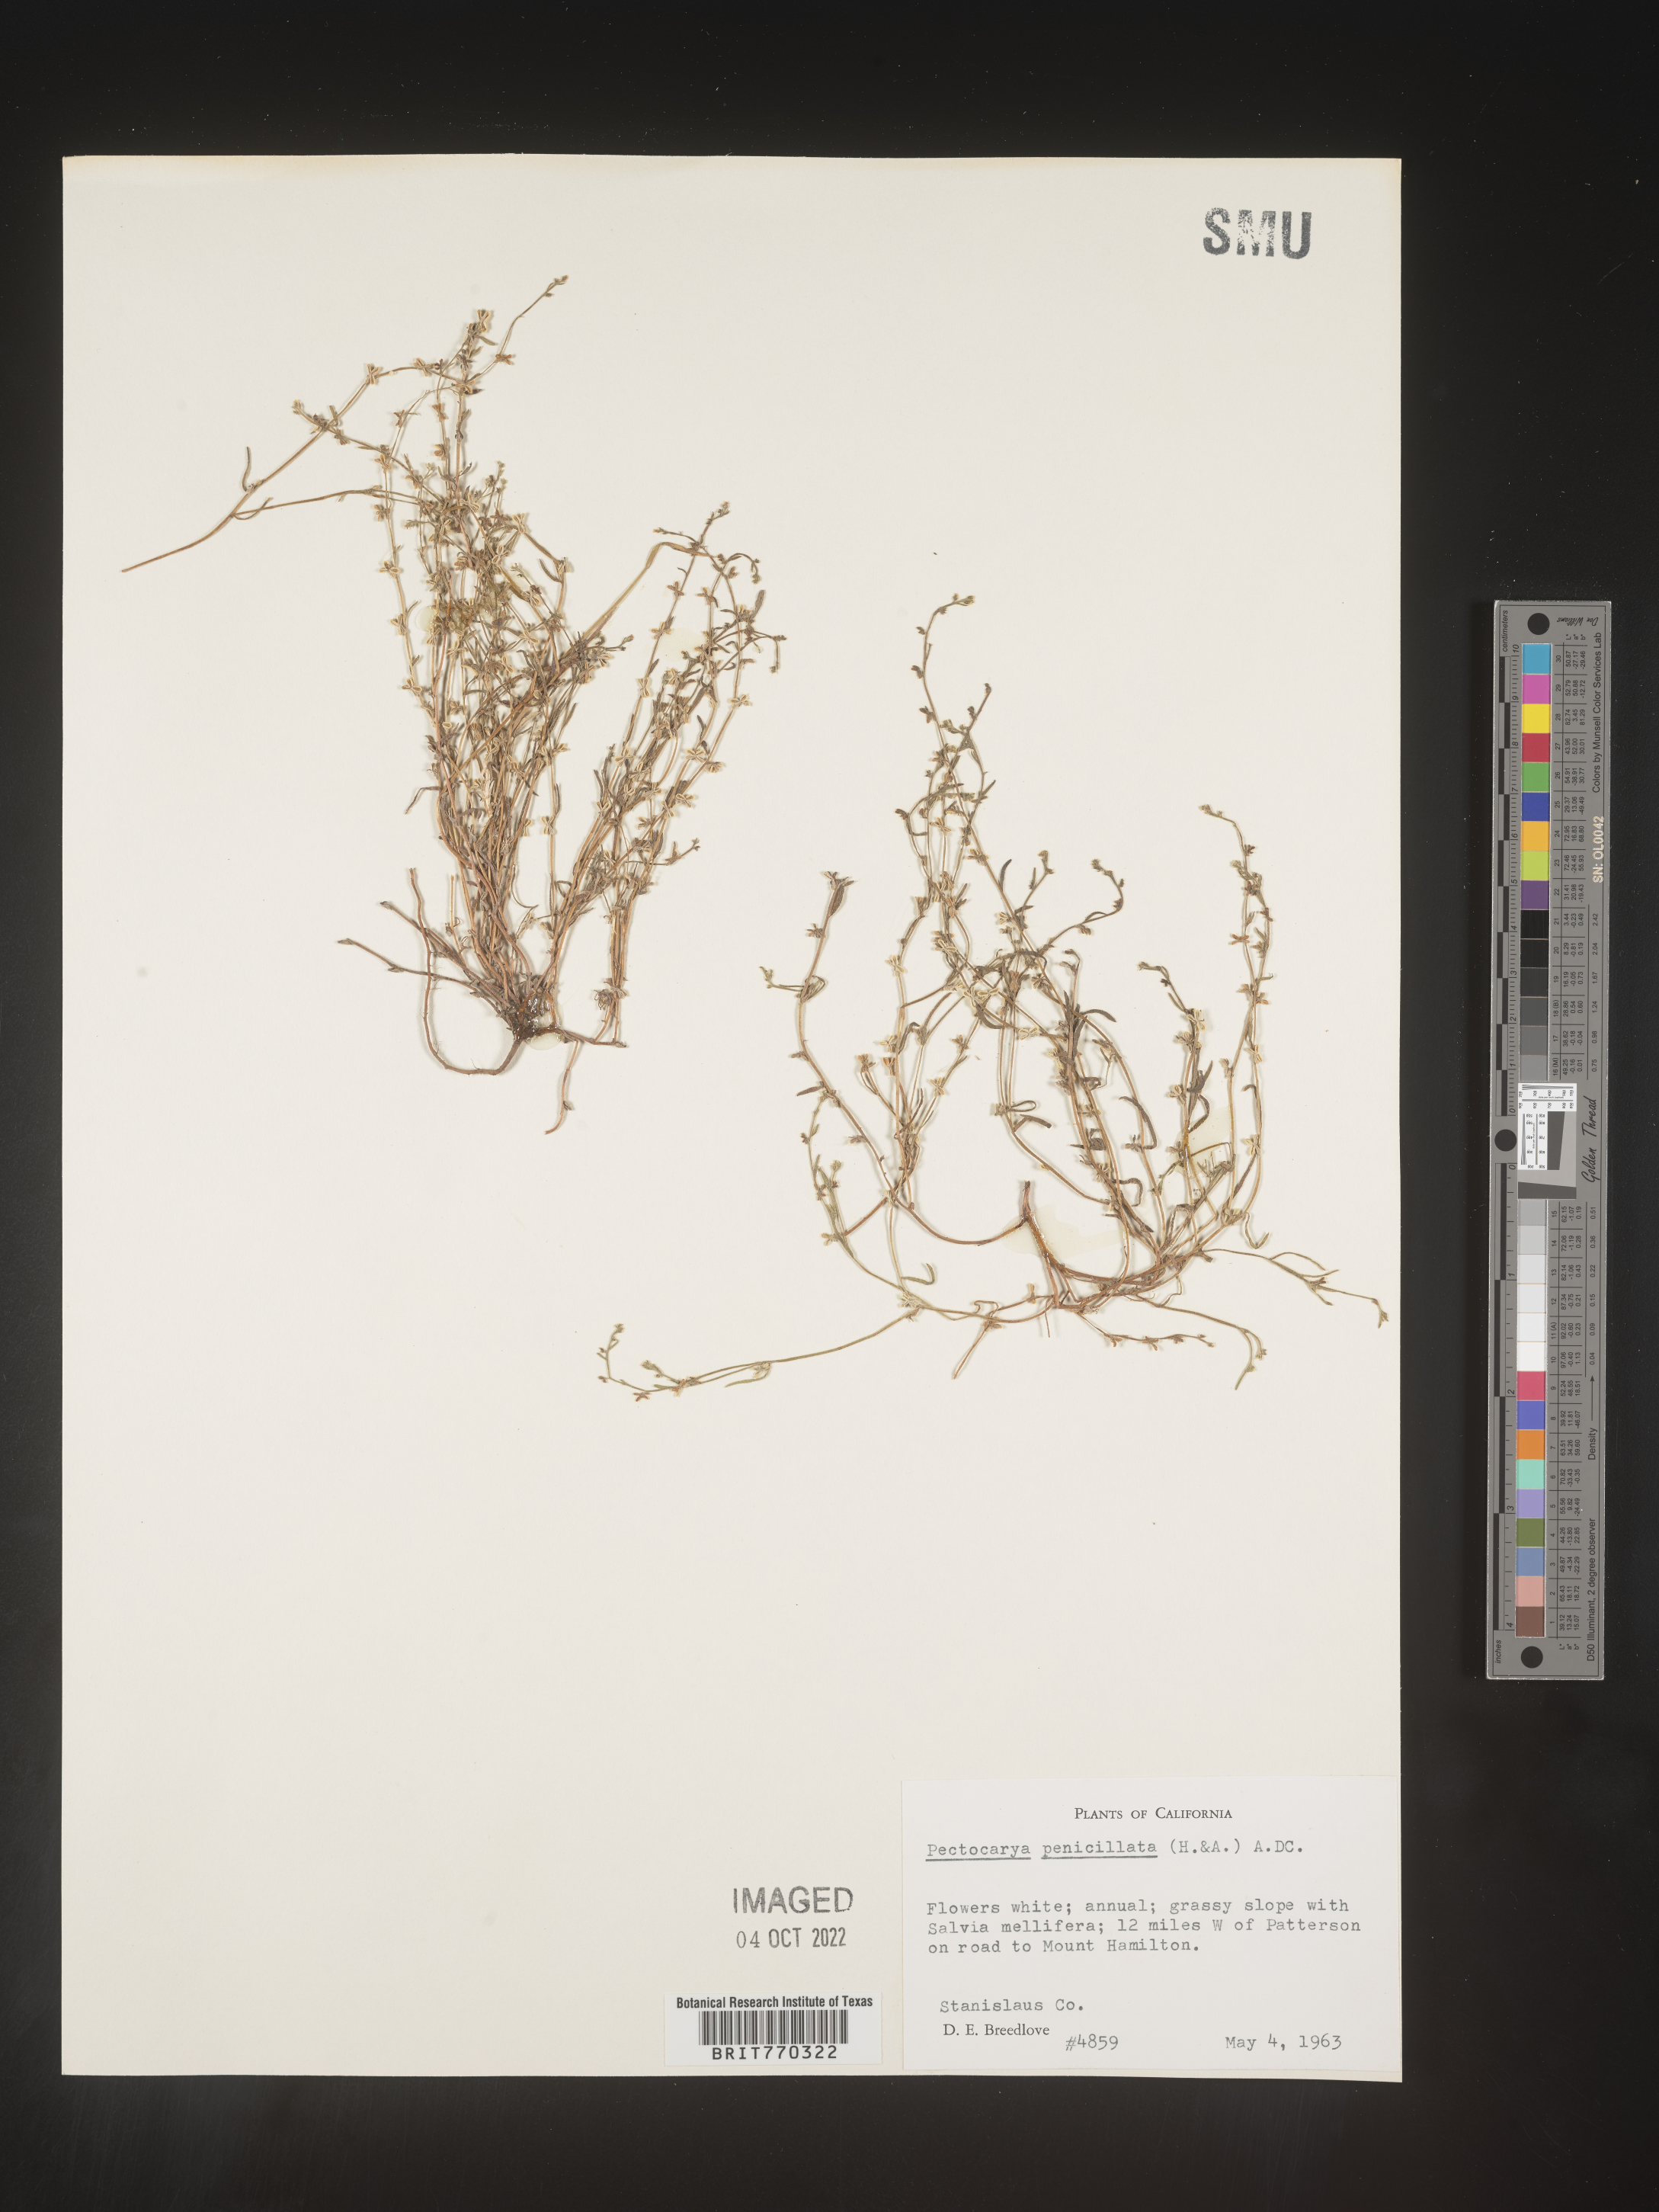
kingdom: Plantae
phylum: Tracheophyta
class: Magnoliopsida
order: Boraginales
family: Boraginaceae
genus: Pectocarya
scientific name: Pectocarya
